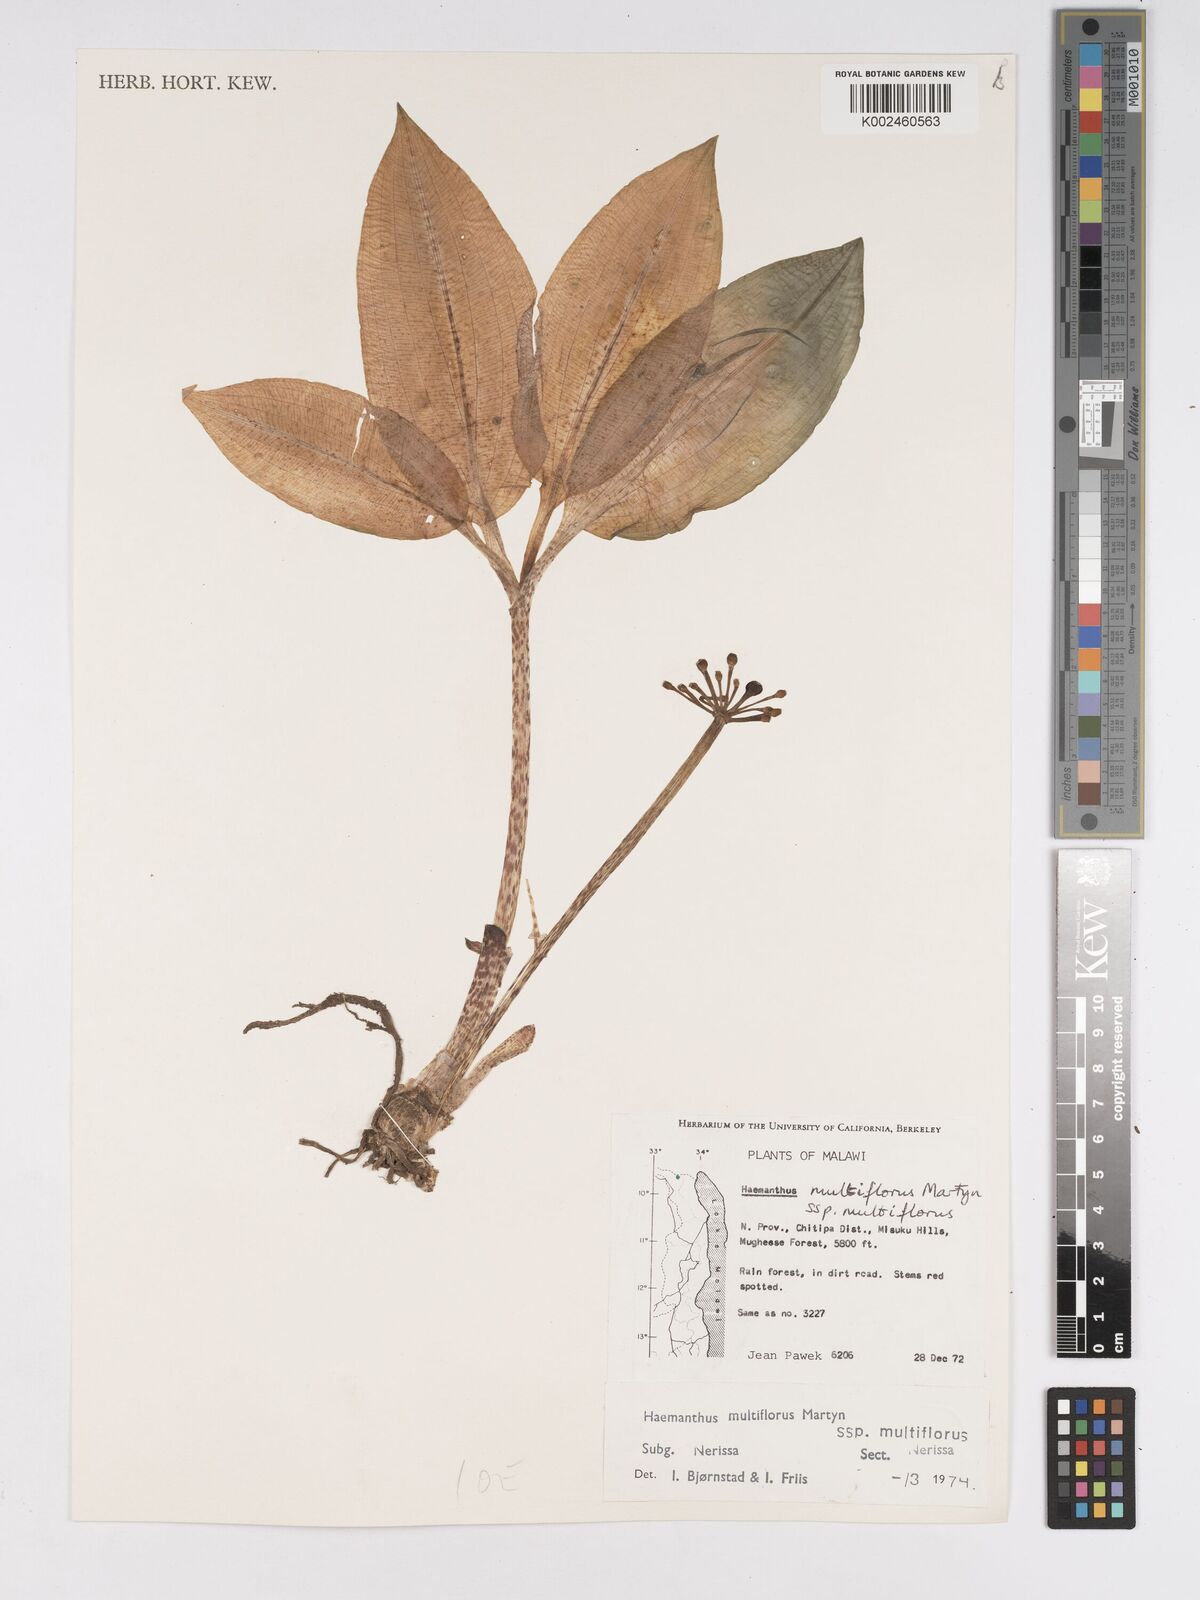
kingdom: Plantae
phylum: Tracheophyta
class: Liliopsida
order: Asparagales
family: Amaryllidaceae
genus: Scadoxus
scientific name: Scadoxus multiflorus
